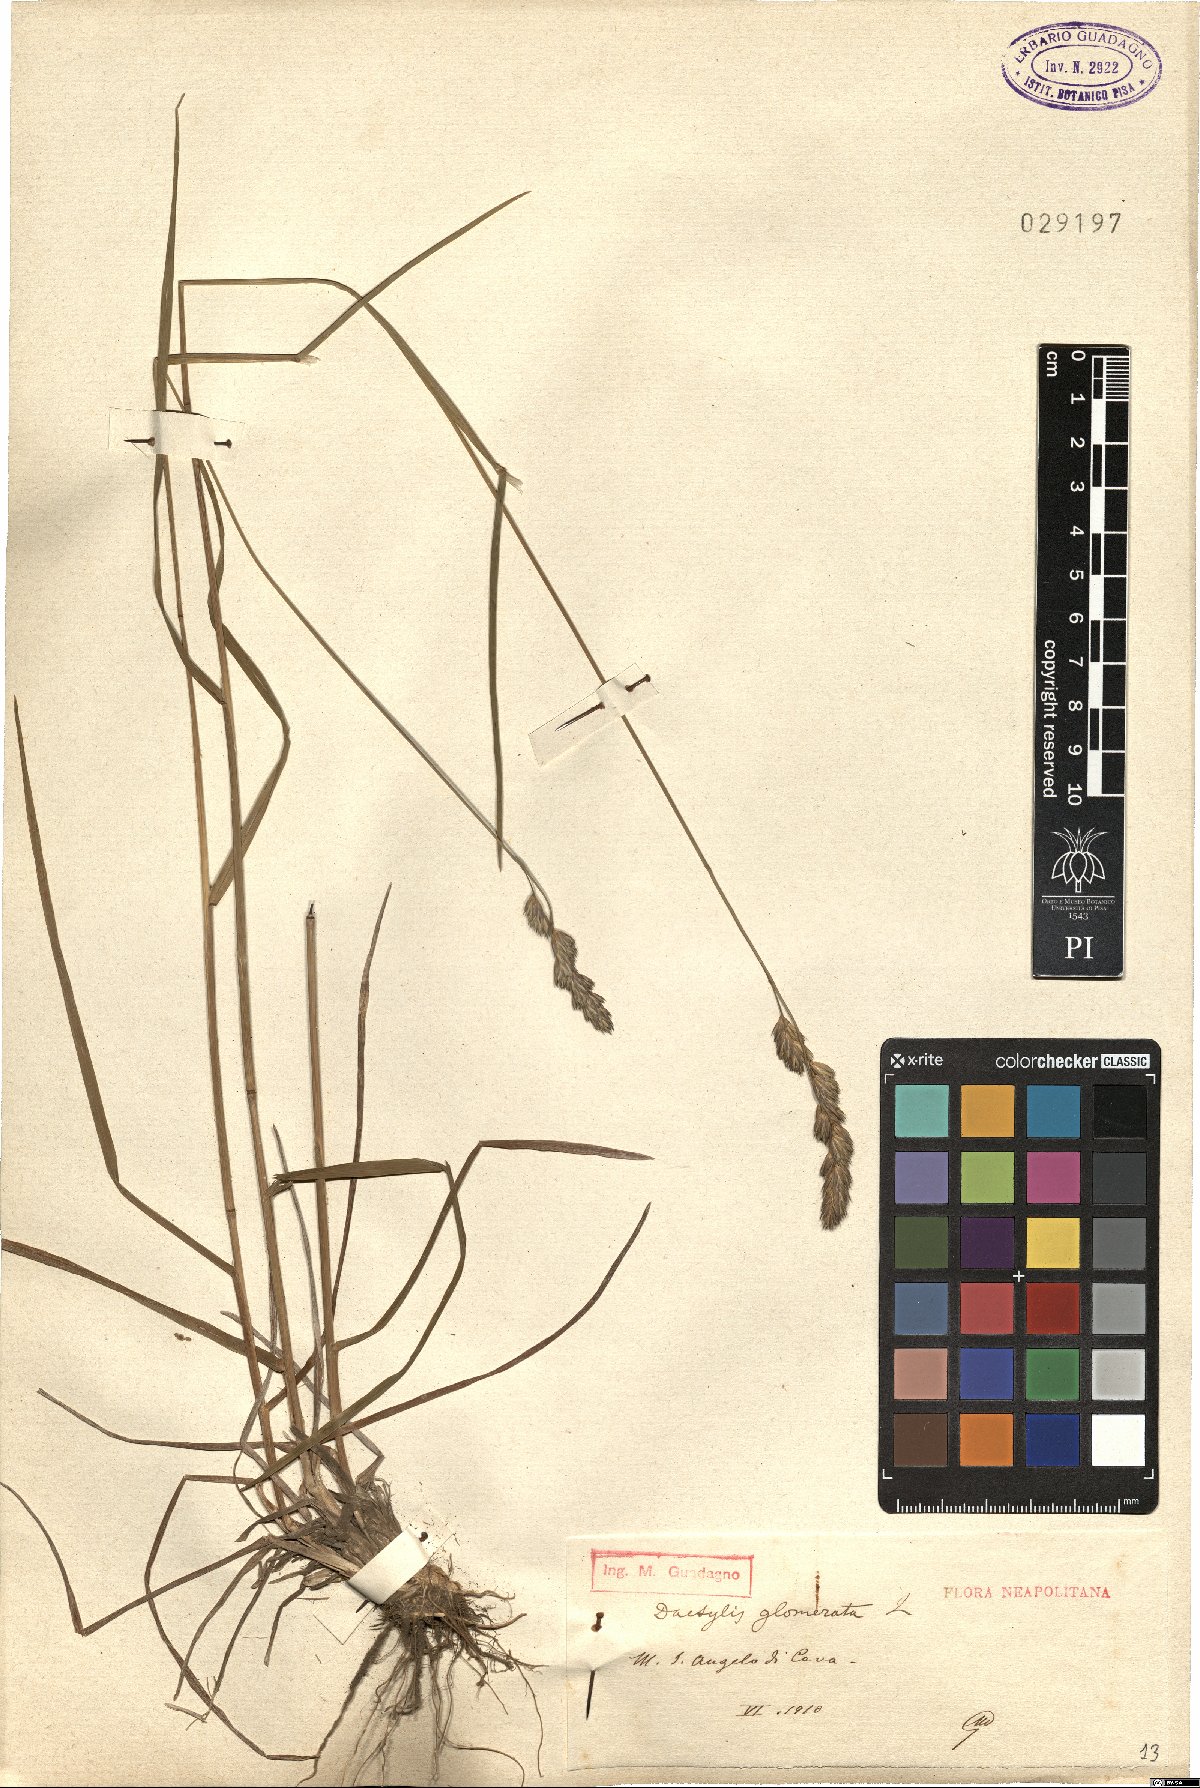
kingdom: Plantae
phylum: Tracheophyta
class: Liliopsida
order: Poales
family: Poaceae
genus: Dactylis
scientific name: Dactylis glomerata
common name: Orchardgrass
